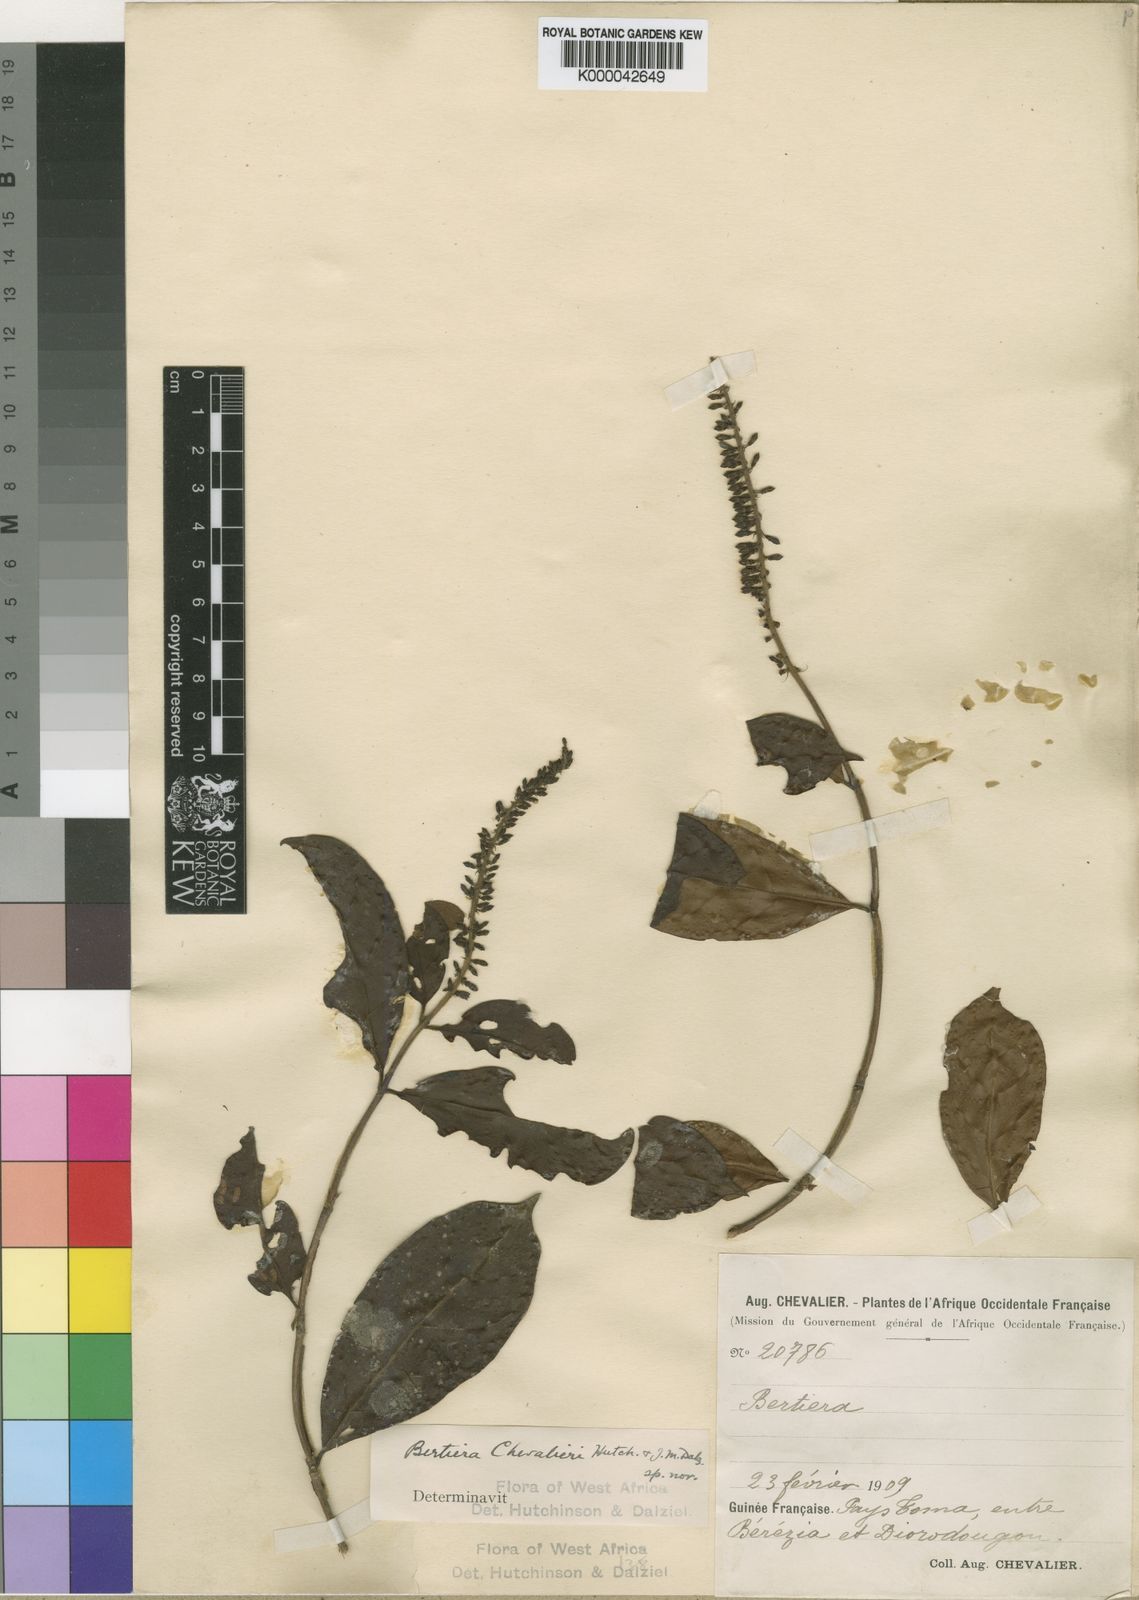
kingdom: Plantae
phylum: Tracheophyta
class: Magnoliopsida
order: Gentianales
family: Rubiaceae
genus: Bertiera
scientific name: Bertiera chevalieri
